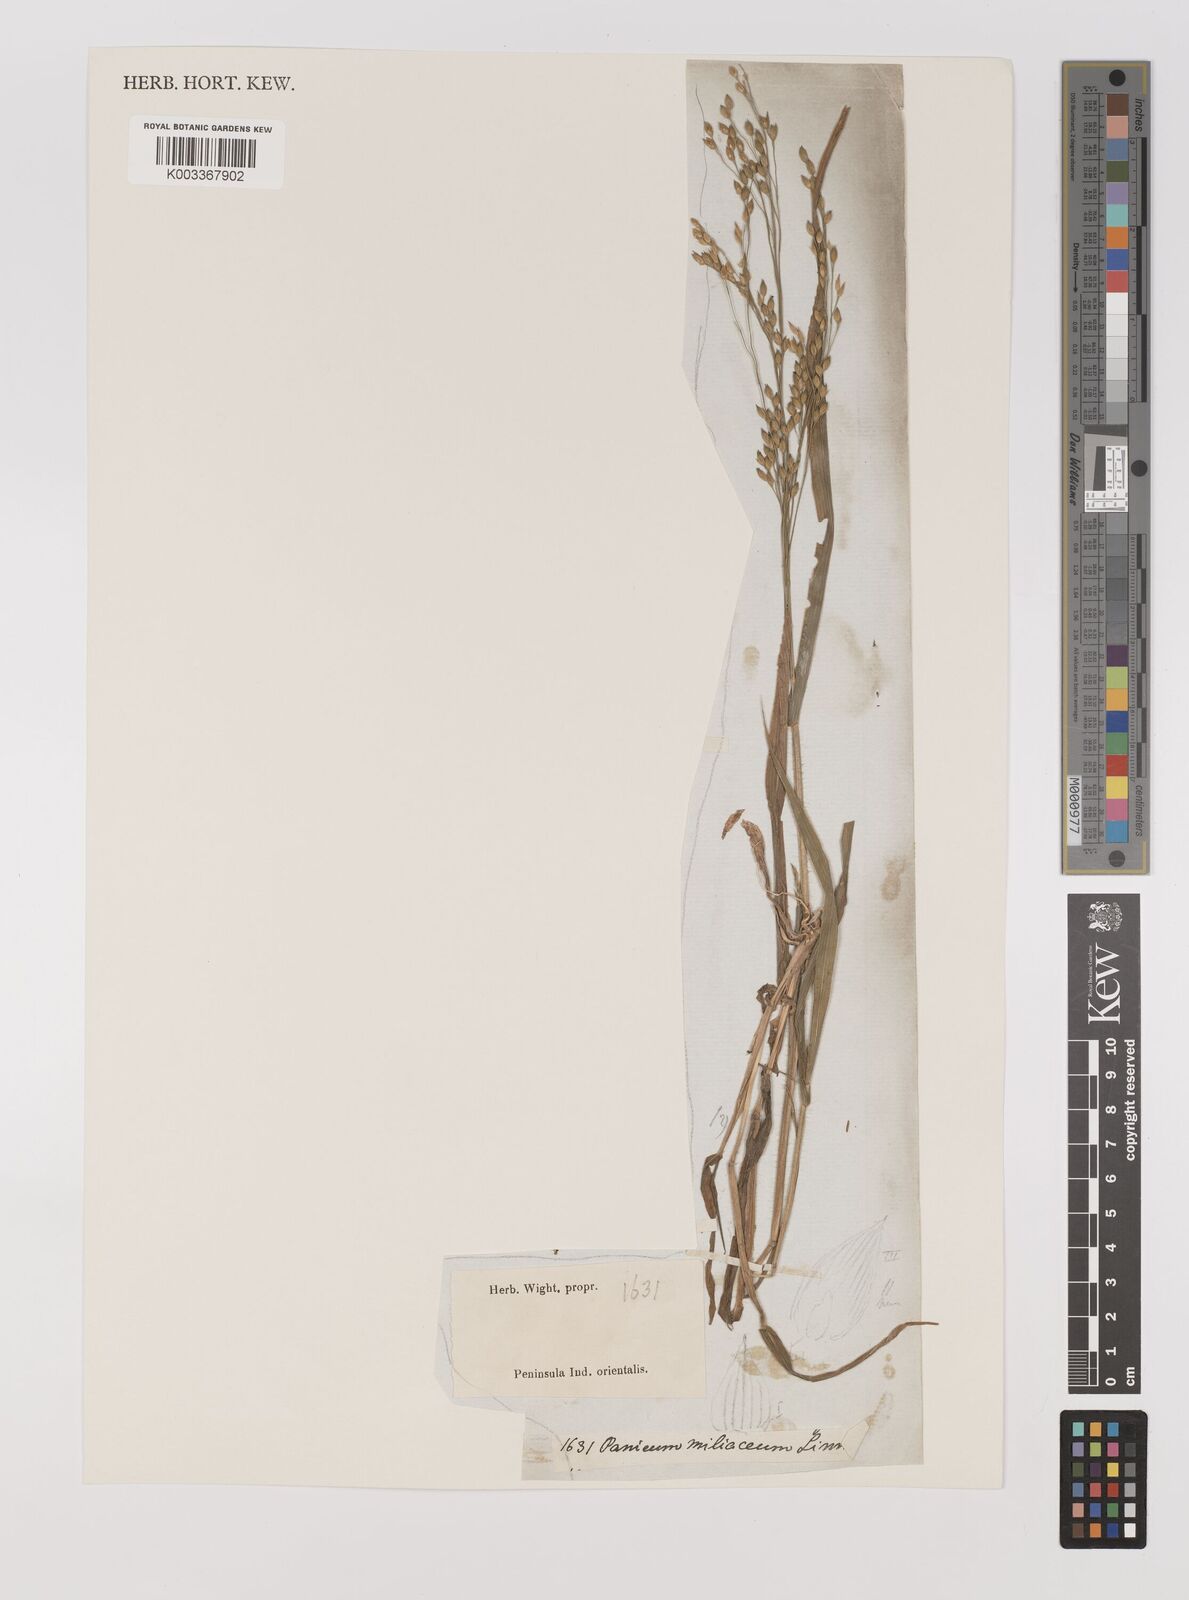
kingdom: Plantae
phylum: Tracheophyta
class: Liliopsida
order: Poales
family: Poaceae
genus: Panicum
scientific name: Panicum miliaceum
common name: Common millet
